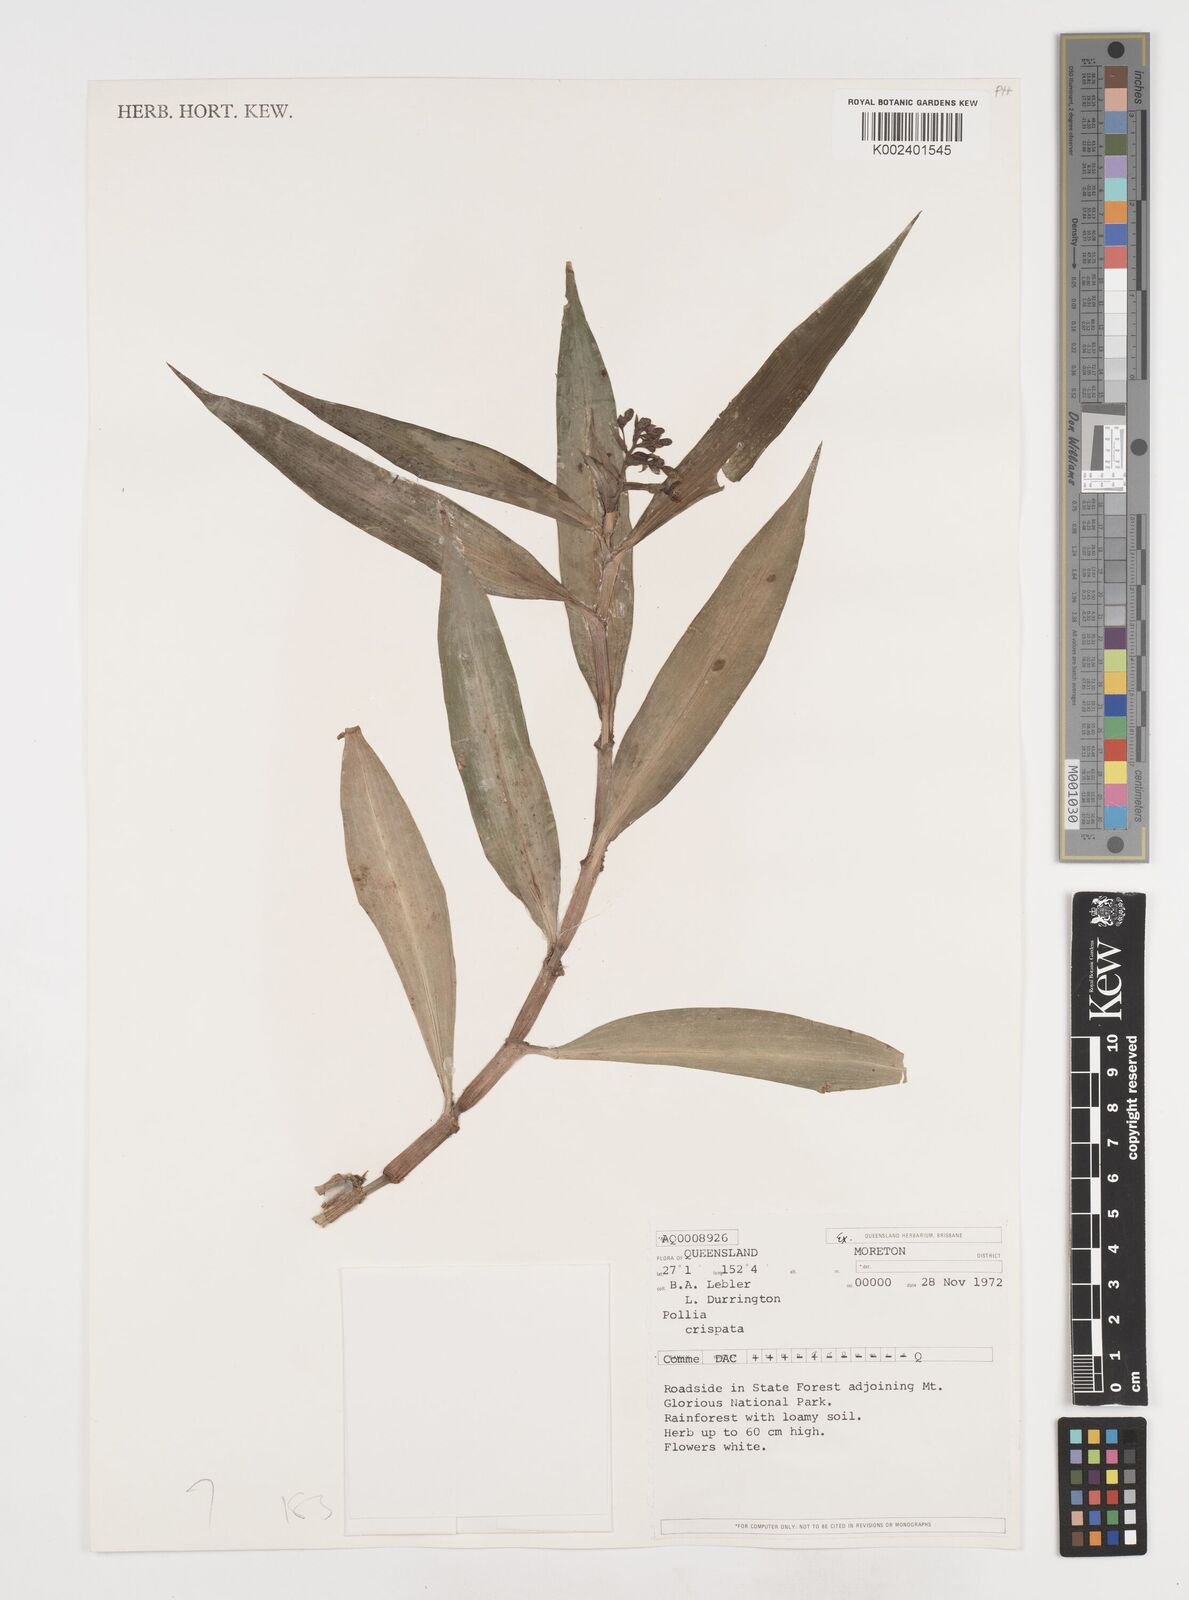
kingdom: Plantae
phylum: Tracheophyta
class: Liliopsida
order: Commelinales
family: Commelinaceae
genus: Pollia
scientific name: Pollia crispata
